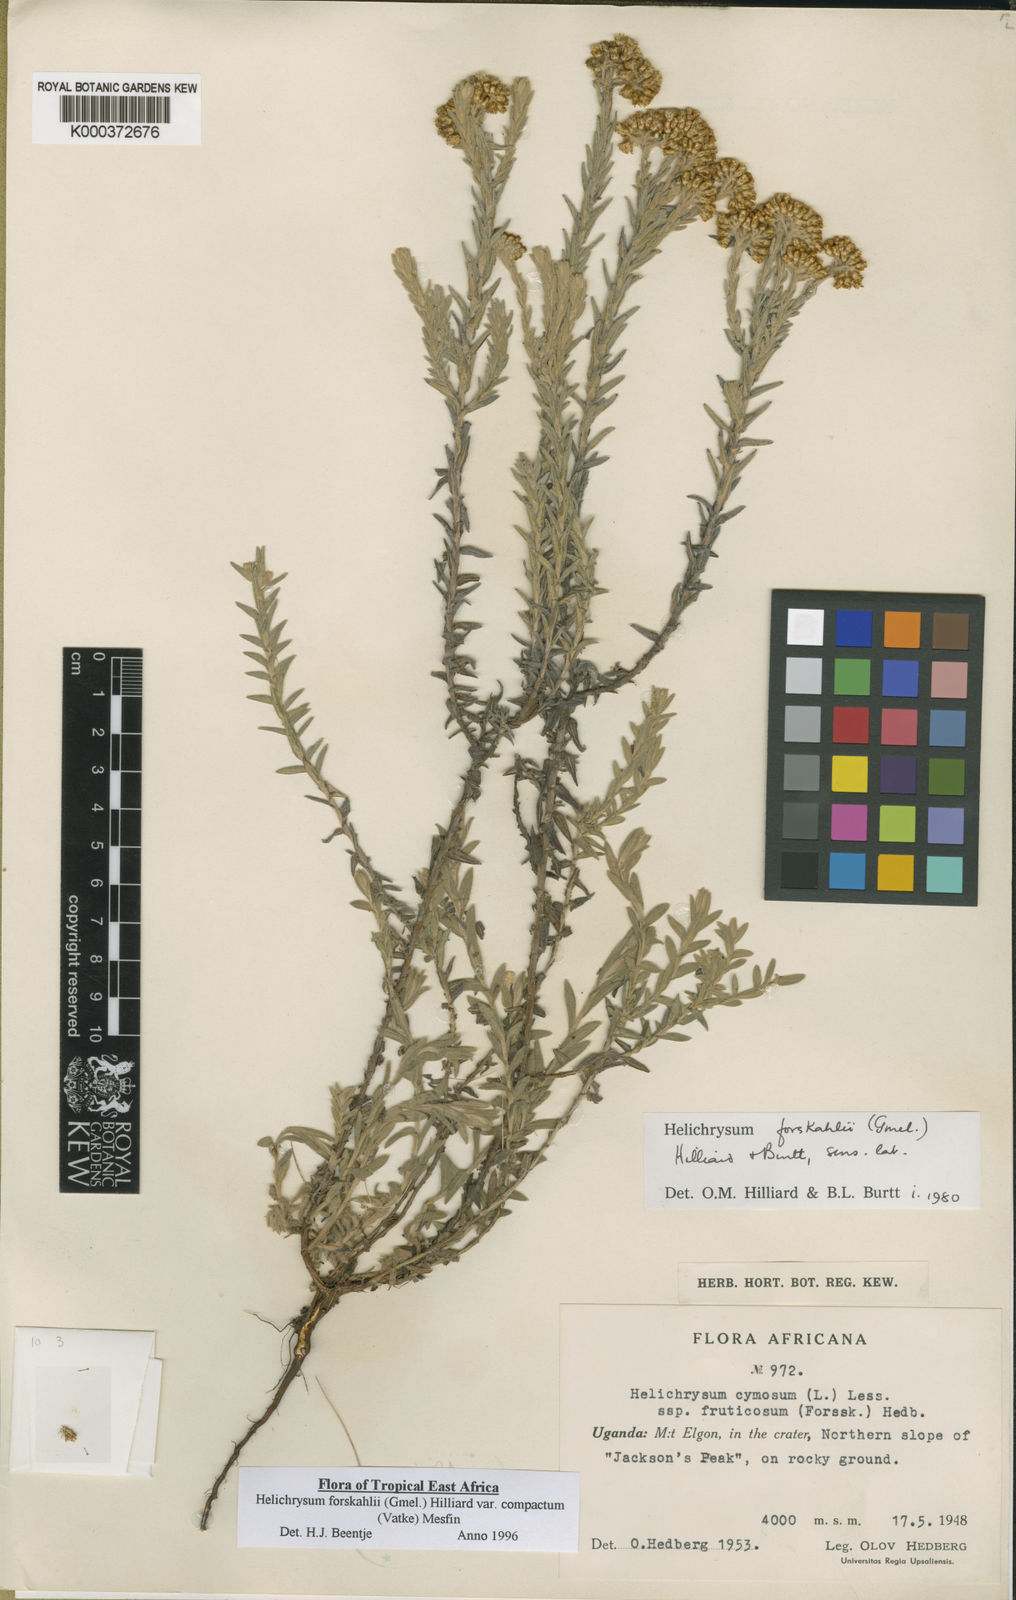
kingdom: Plantae
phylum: Tracheophyta
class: Magnoliopsida
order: Asterales
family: Asteraceae
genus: Helichrysum
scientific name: Helichrysum forskahlii
